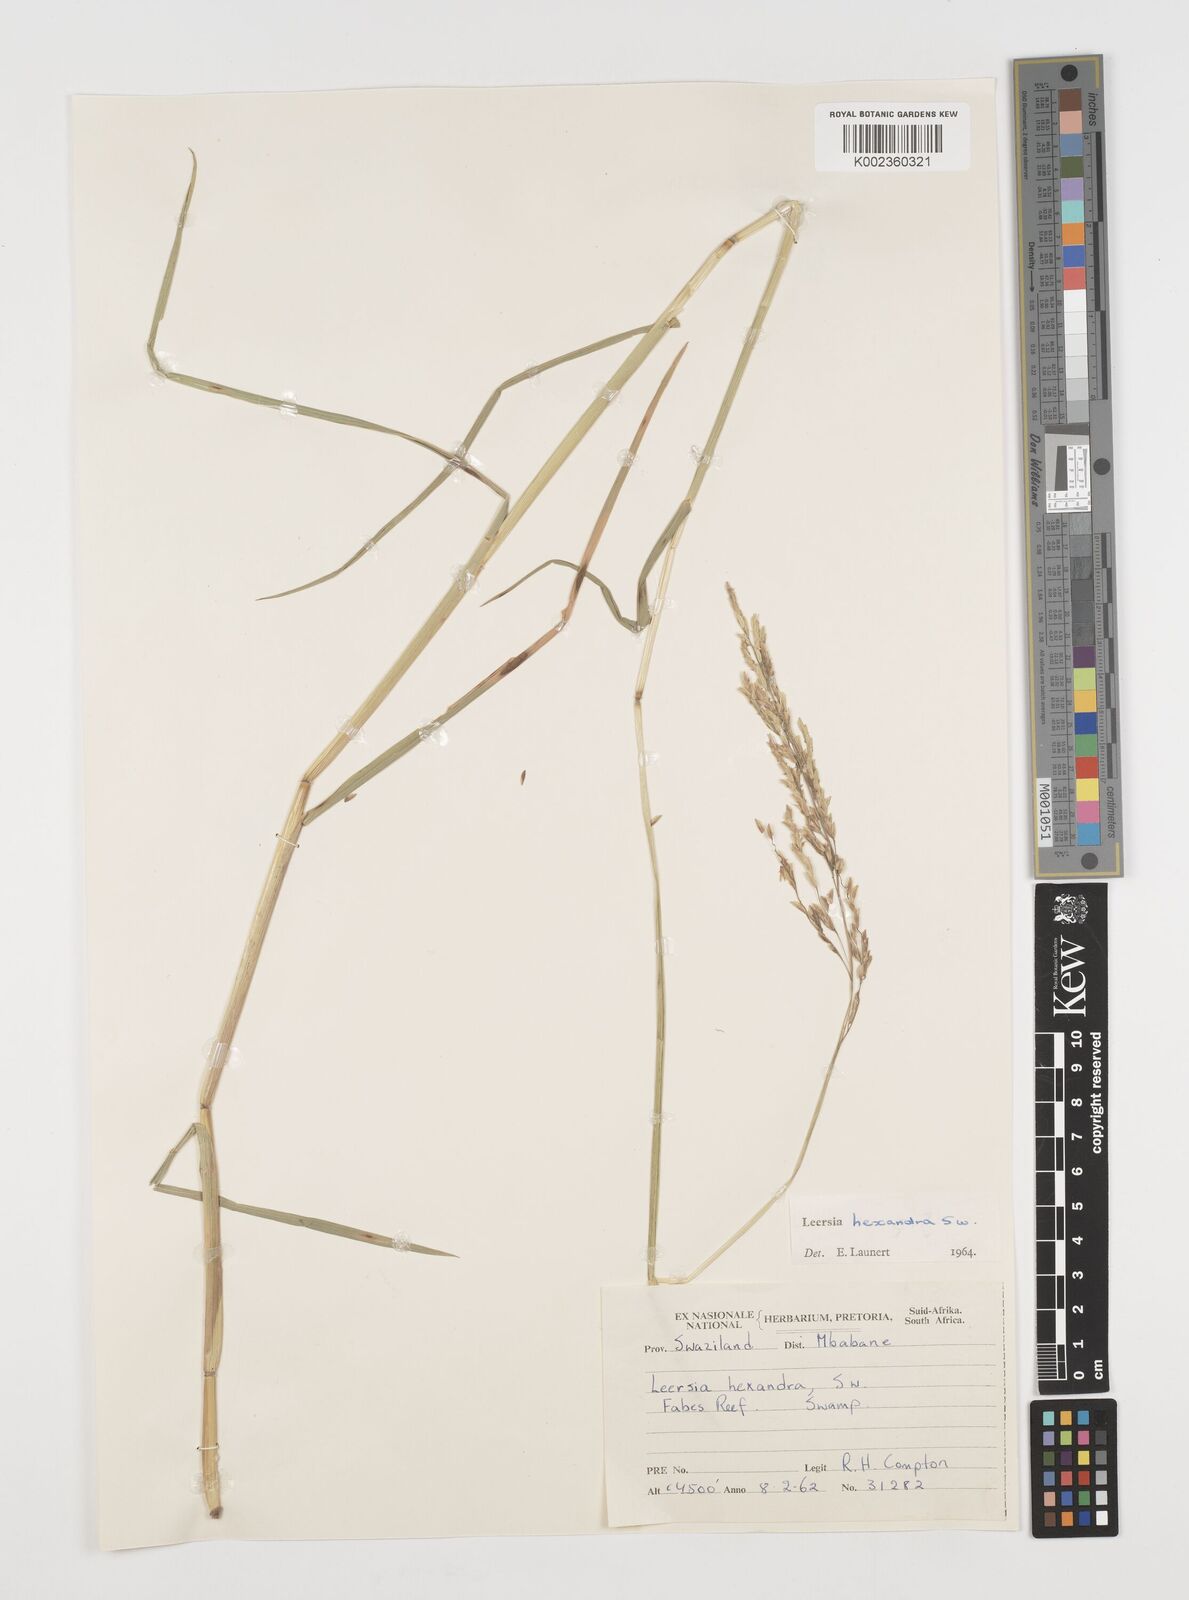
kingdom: Plantae
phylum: Tracheophyta
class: Liliopsida
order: Poales
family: Poaceae
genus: Leersia
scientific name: Leersia hexandra
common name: Southern cut grass
